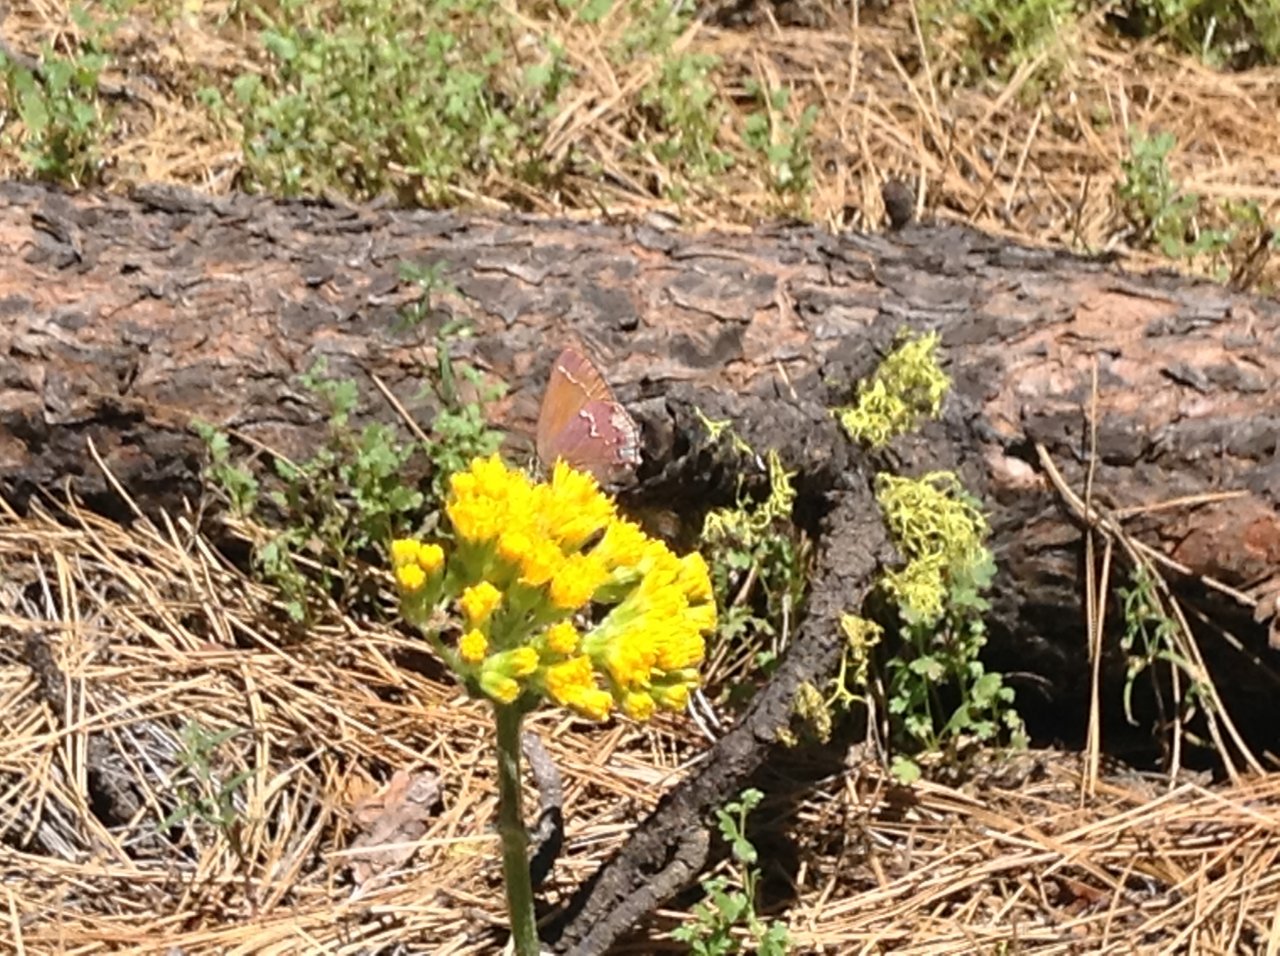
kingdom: Animalia
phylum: Arthropoda
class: Insecta
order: Lepidoptera
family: Lycaenidae
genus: Mitoura
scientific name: Mitoura nelsoni
